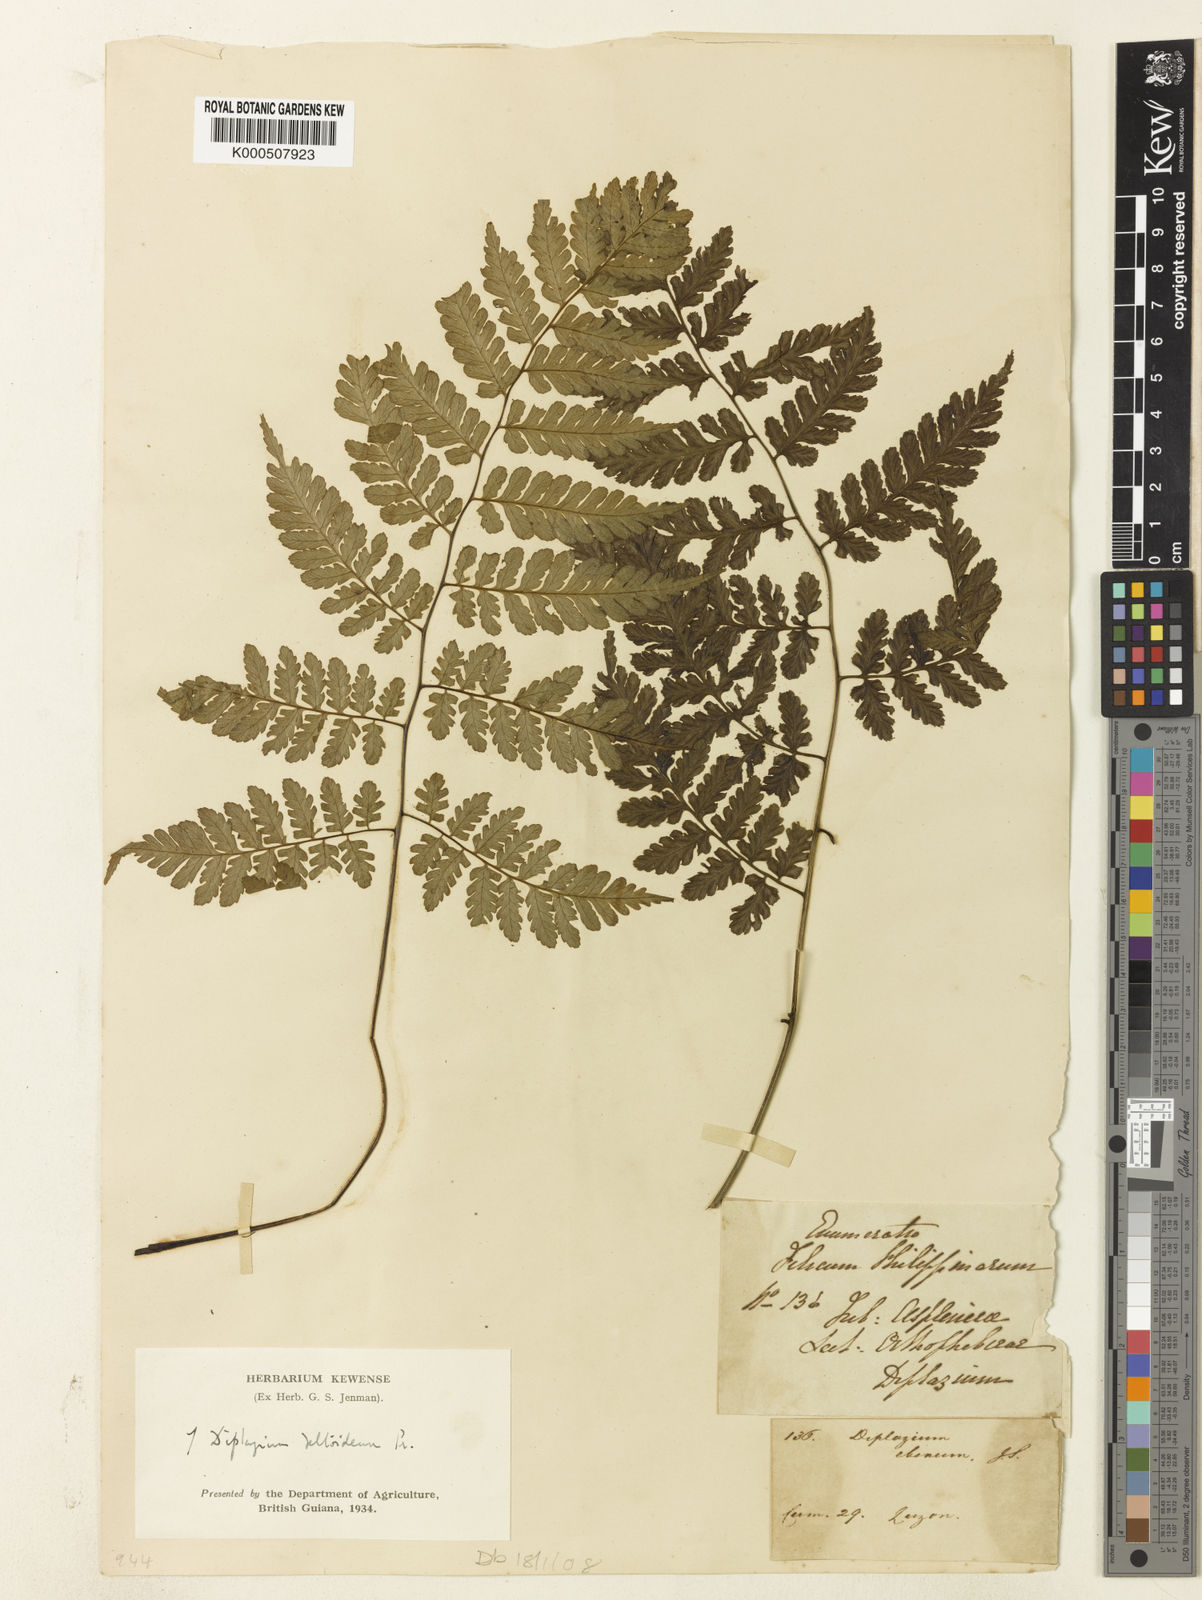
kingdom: Plantae
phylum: Tracheophyta
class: Polypodiopsida
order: Polypodiales
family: Athyriaceae
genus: Diplazium
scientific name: Diplazium
